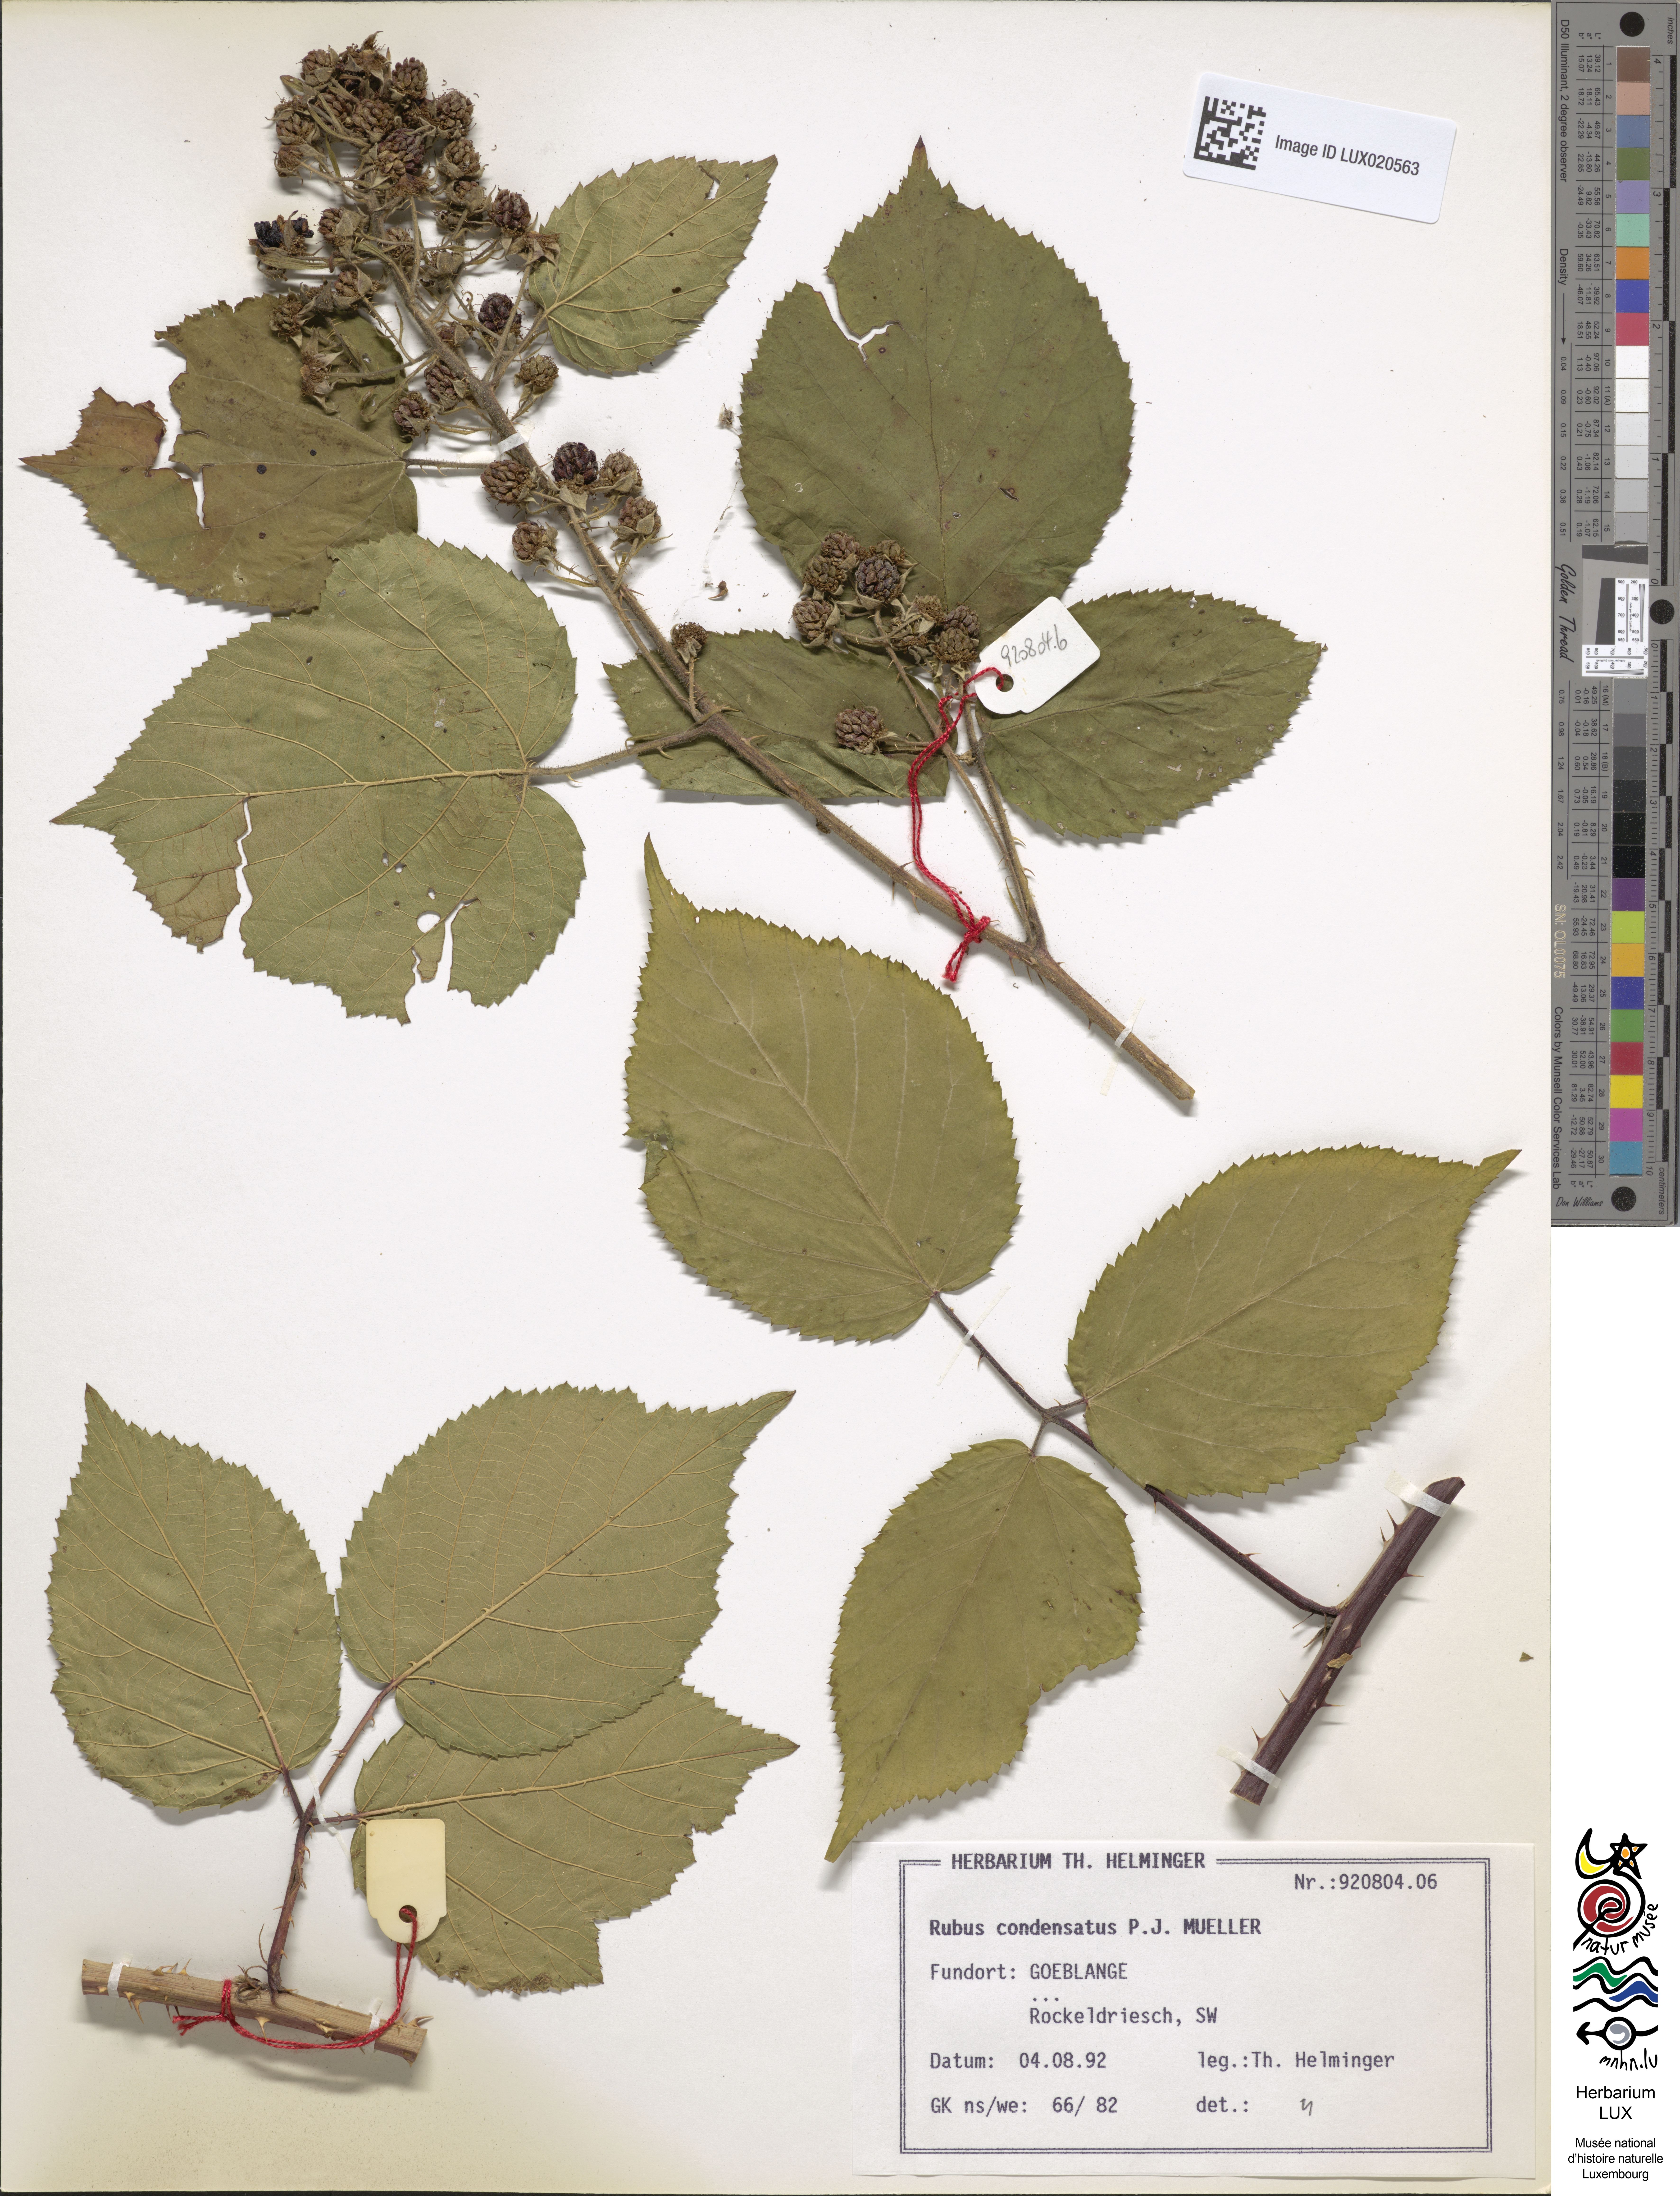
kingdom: Plantae
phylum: Tracheophyta
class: Magnoliopsida
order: Rosales
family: Rosaceae
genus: Rubus
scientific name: Rubus condensatus
